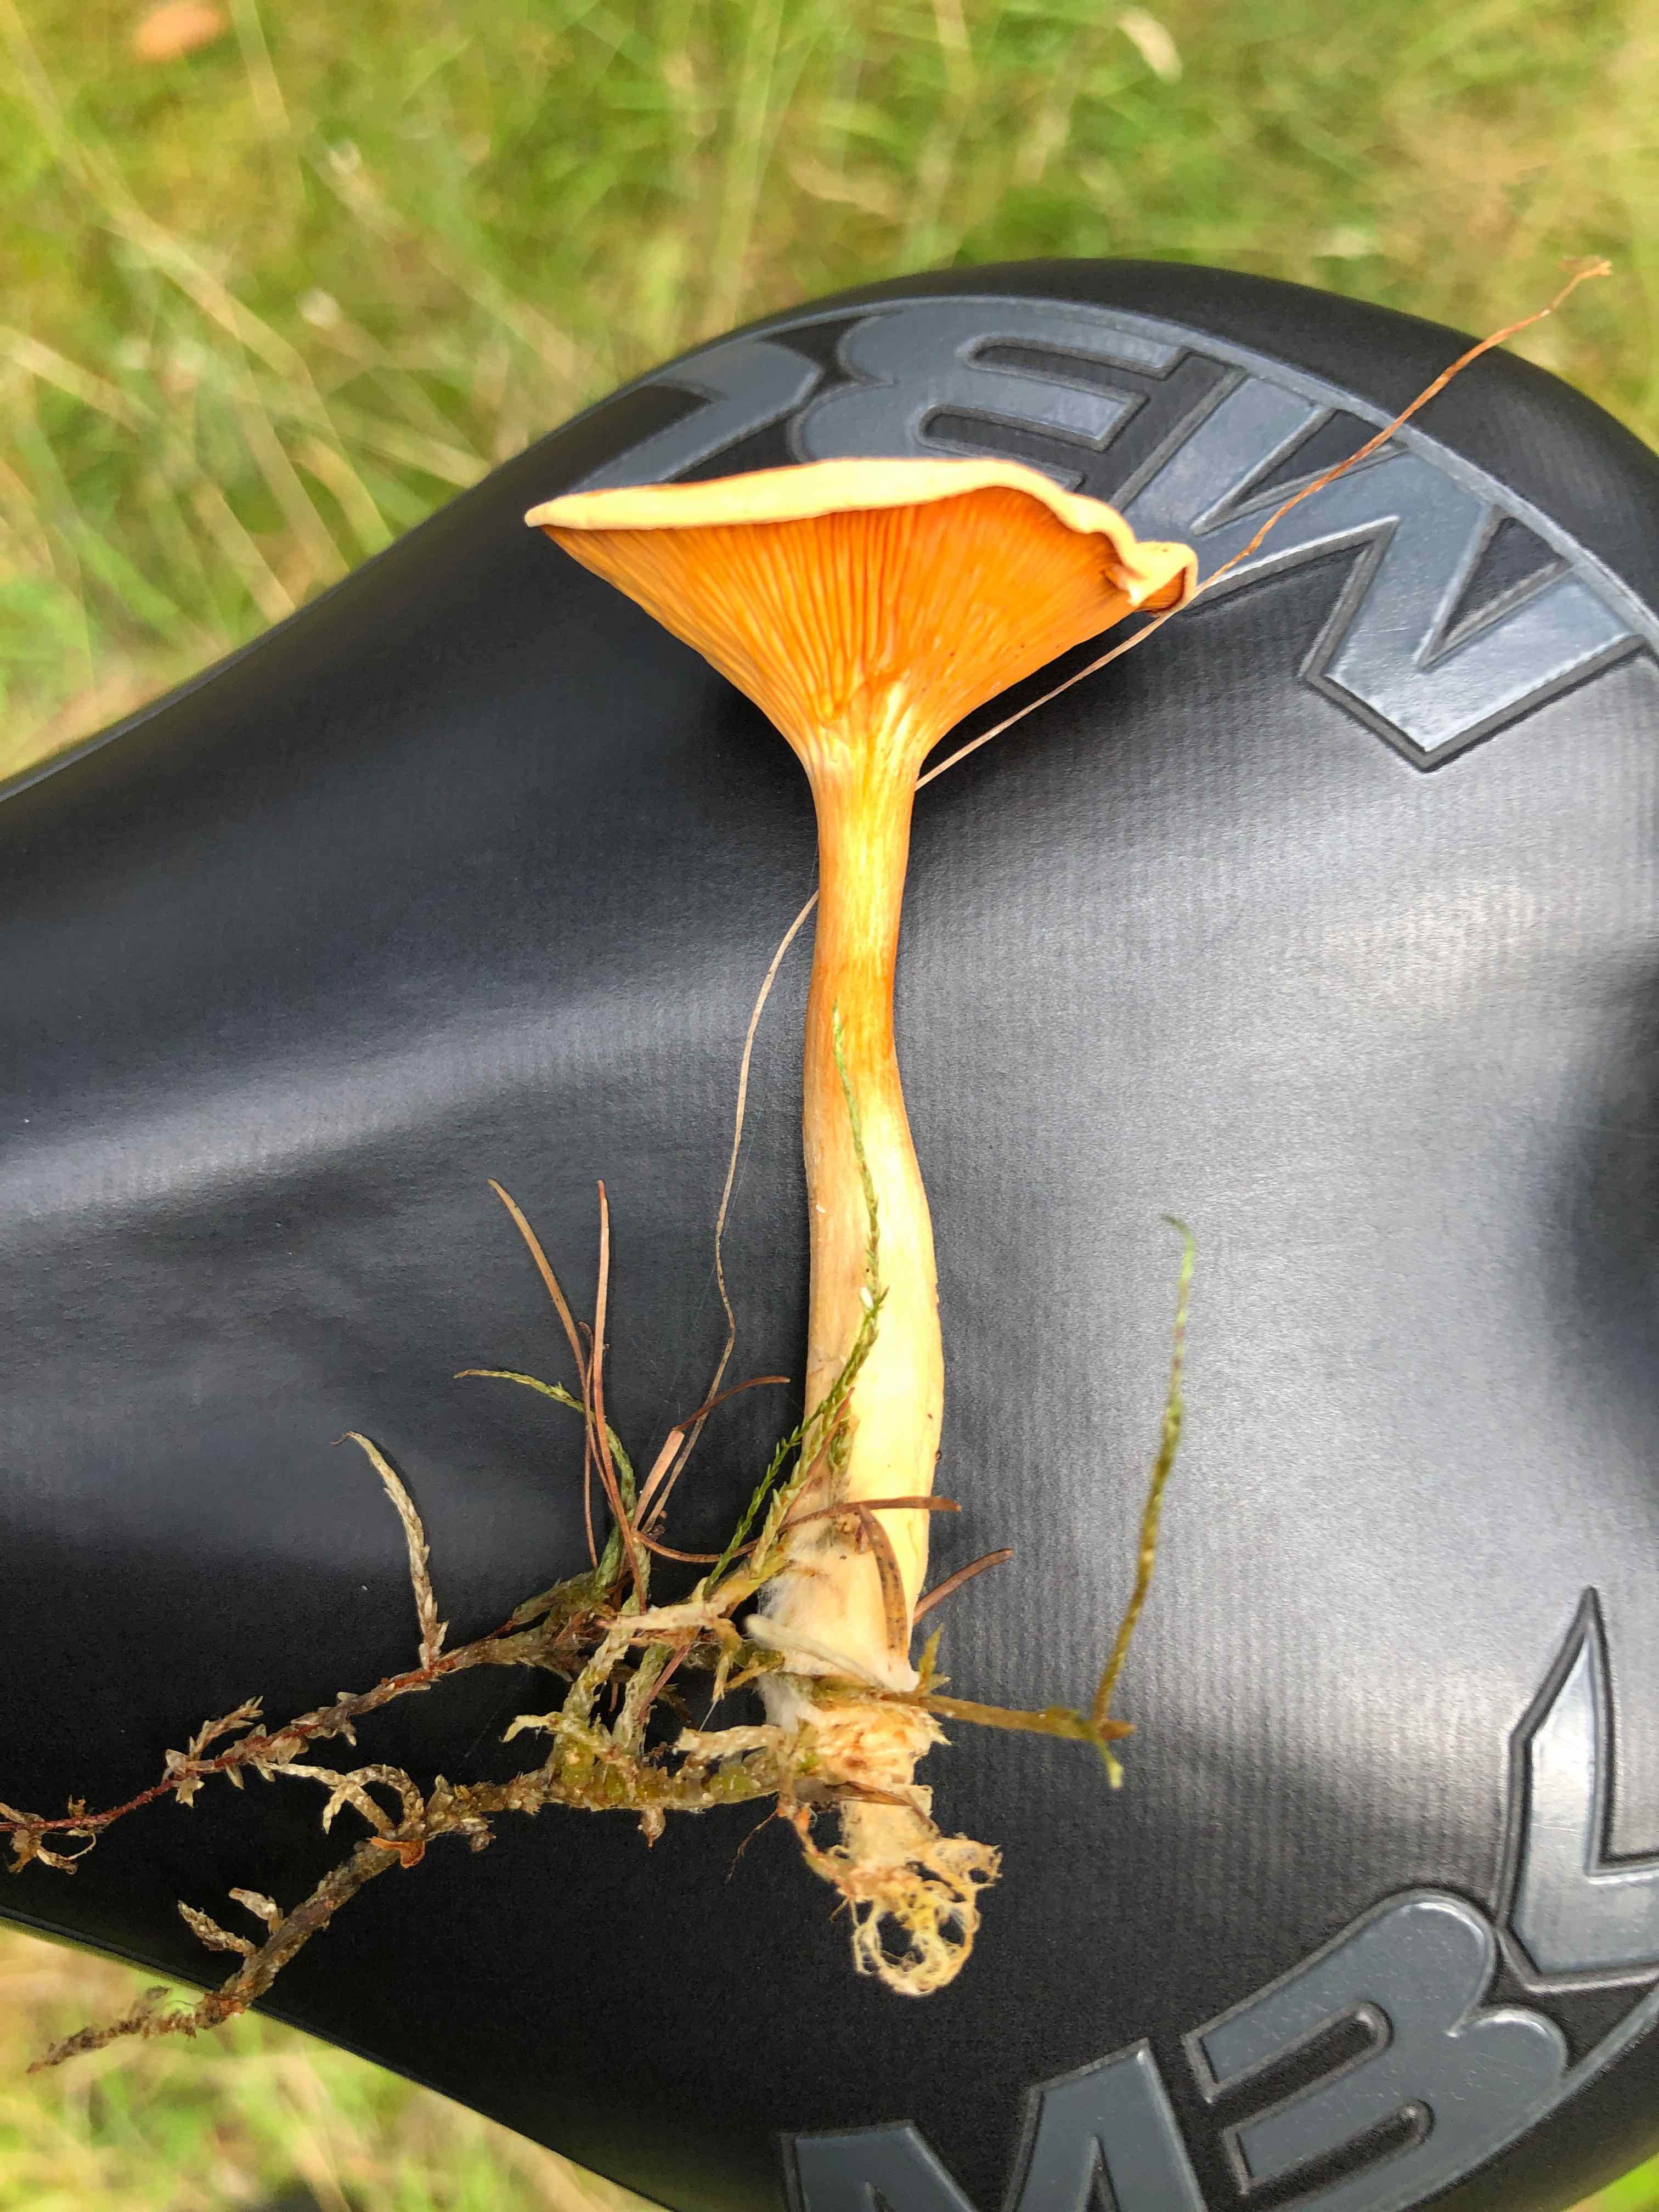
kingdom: Fungi
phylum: Basidiomycota
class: Agaricomycetes
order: Boletales
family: Hygrophoropsidaceae
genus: Hygrophoropsis
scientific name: Hygrophoropsis aurantiaca
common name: almindelig orangekantarel
